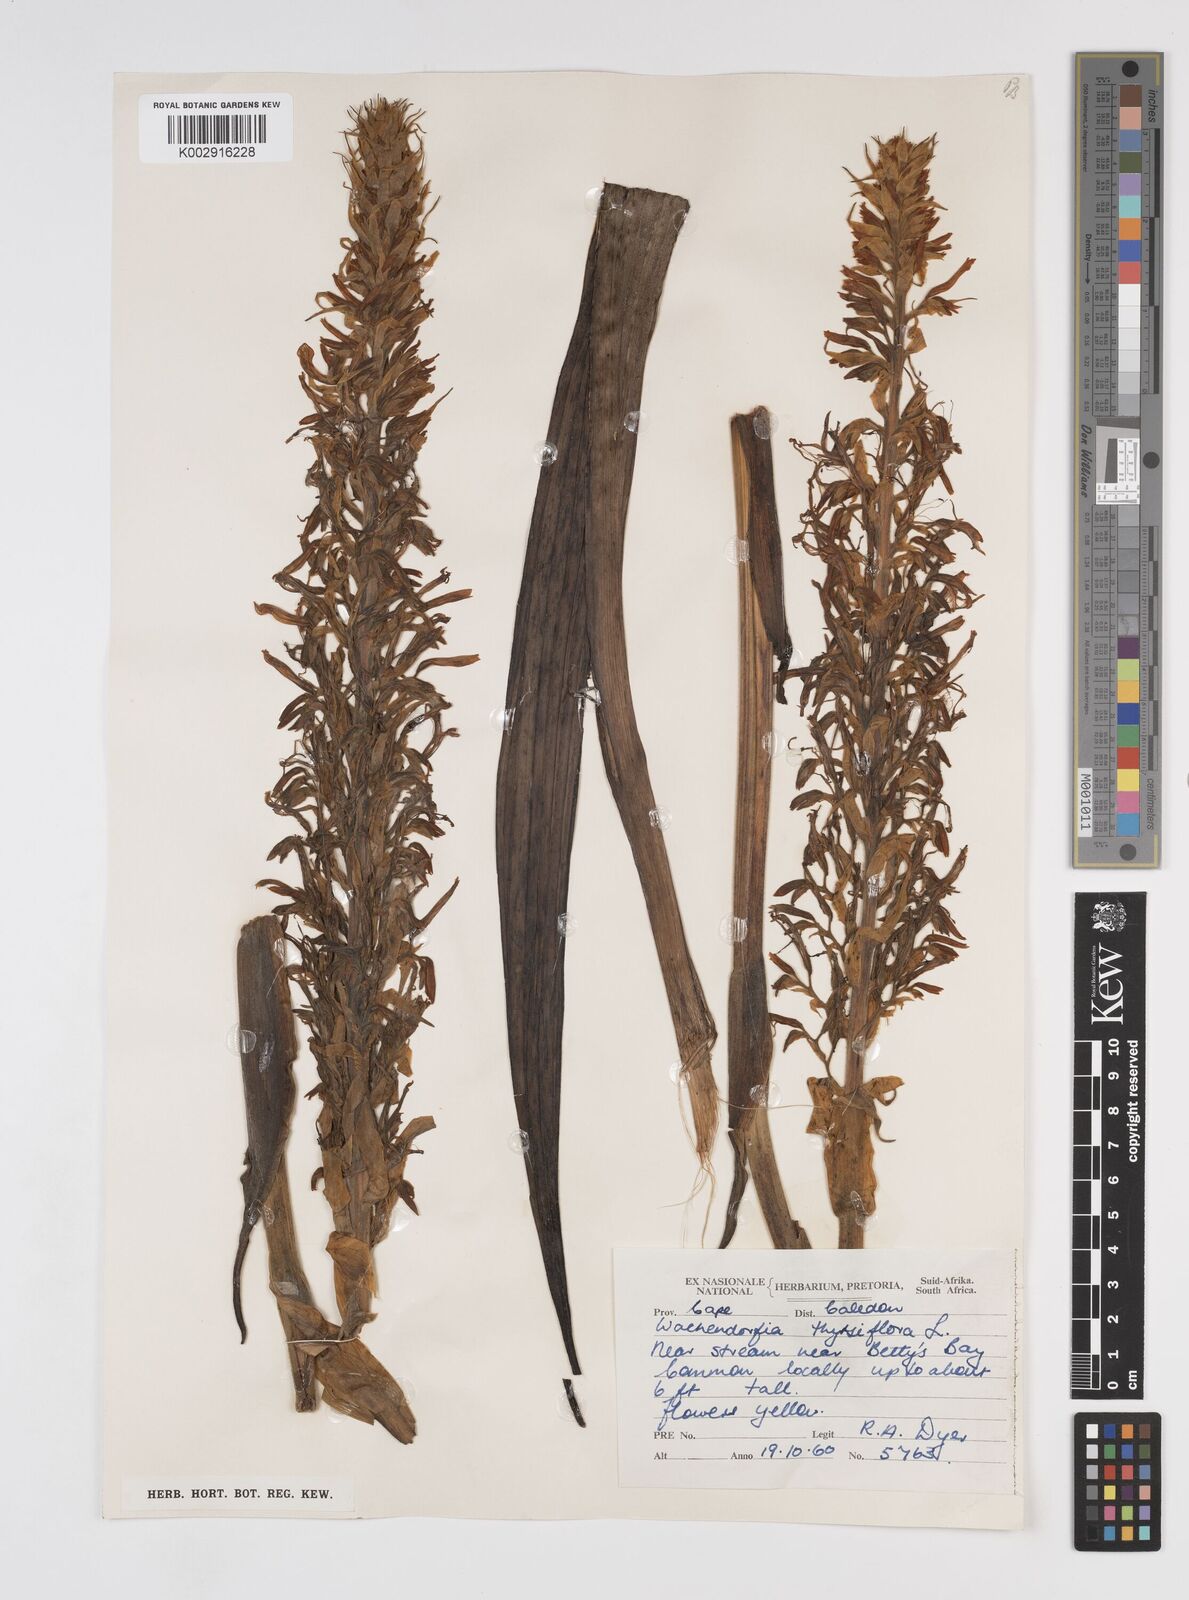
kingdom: Plantae
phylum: Tracheophyta
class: Liliopsida
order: Commelinales
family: Haemodoraceae
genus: Wachendorfia
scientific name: Wachendorfia thyrsiflora
